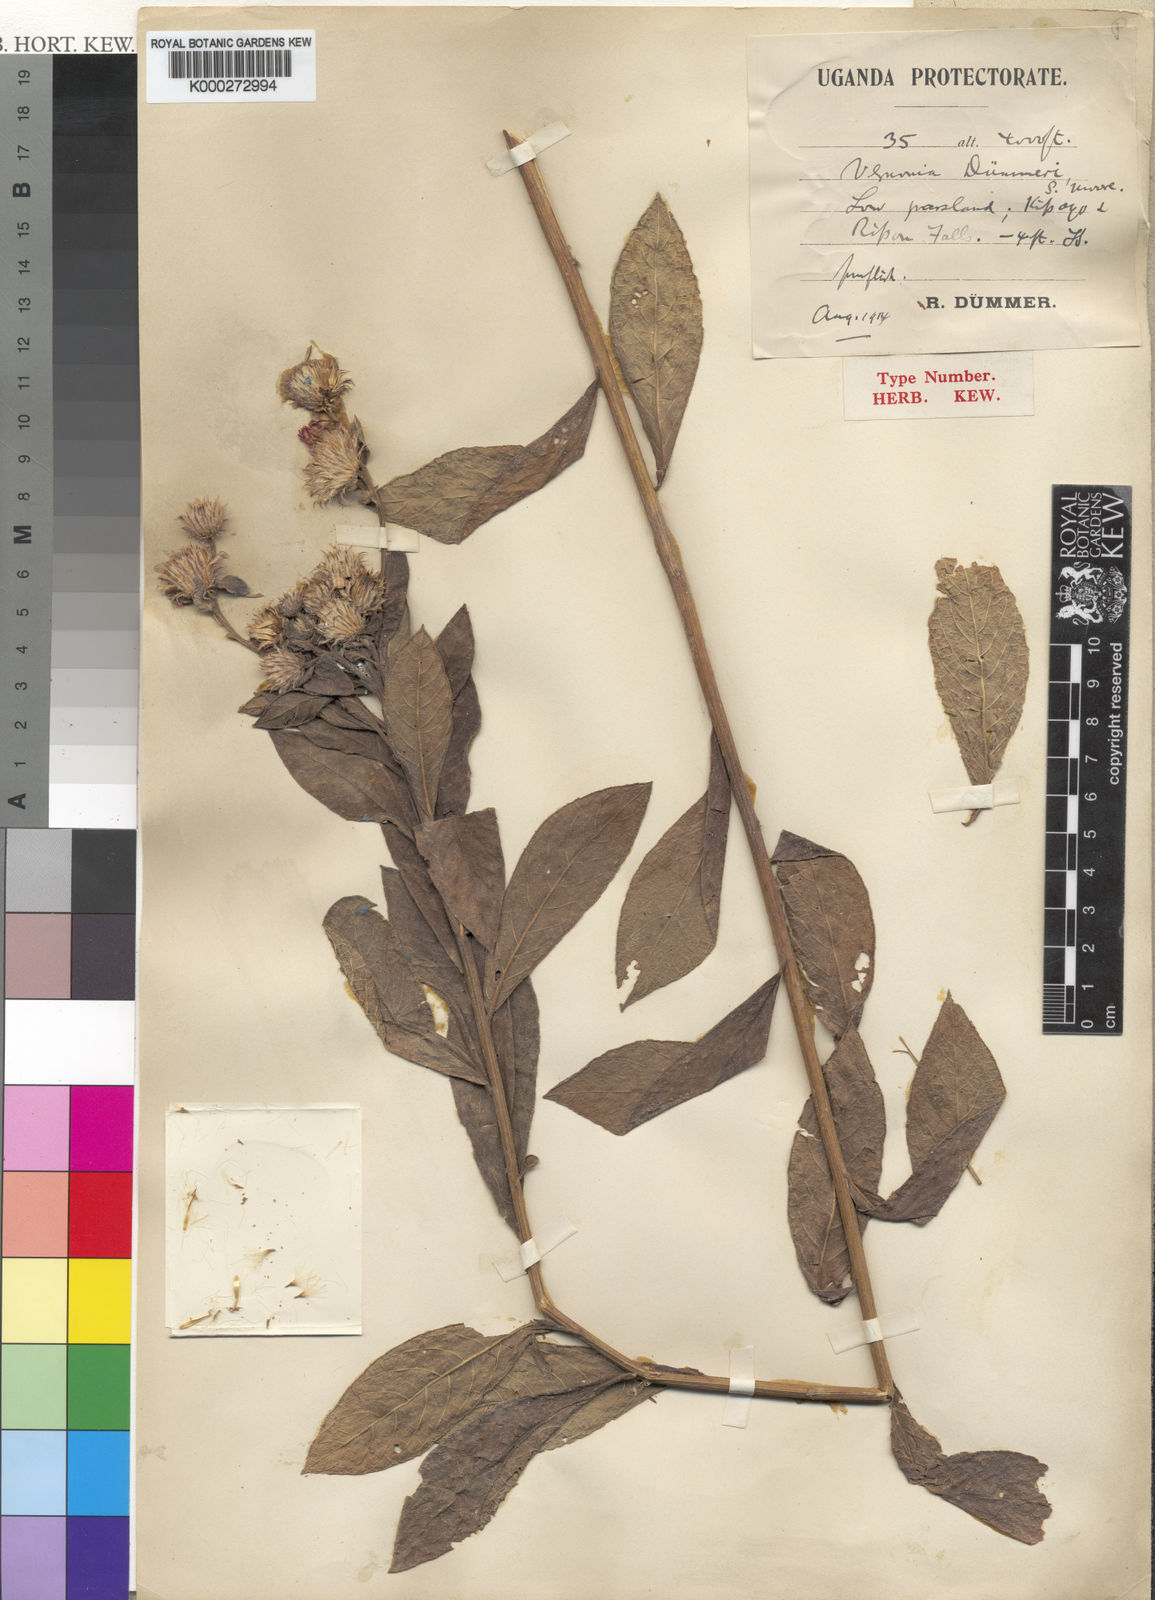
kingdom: Plantae
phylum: Tracheophyta
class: Magnoliopsida
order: Asterales
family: Asteraceae
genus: Nothovernonia
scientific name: Nothovernonia purpurea
